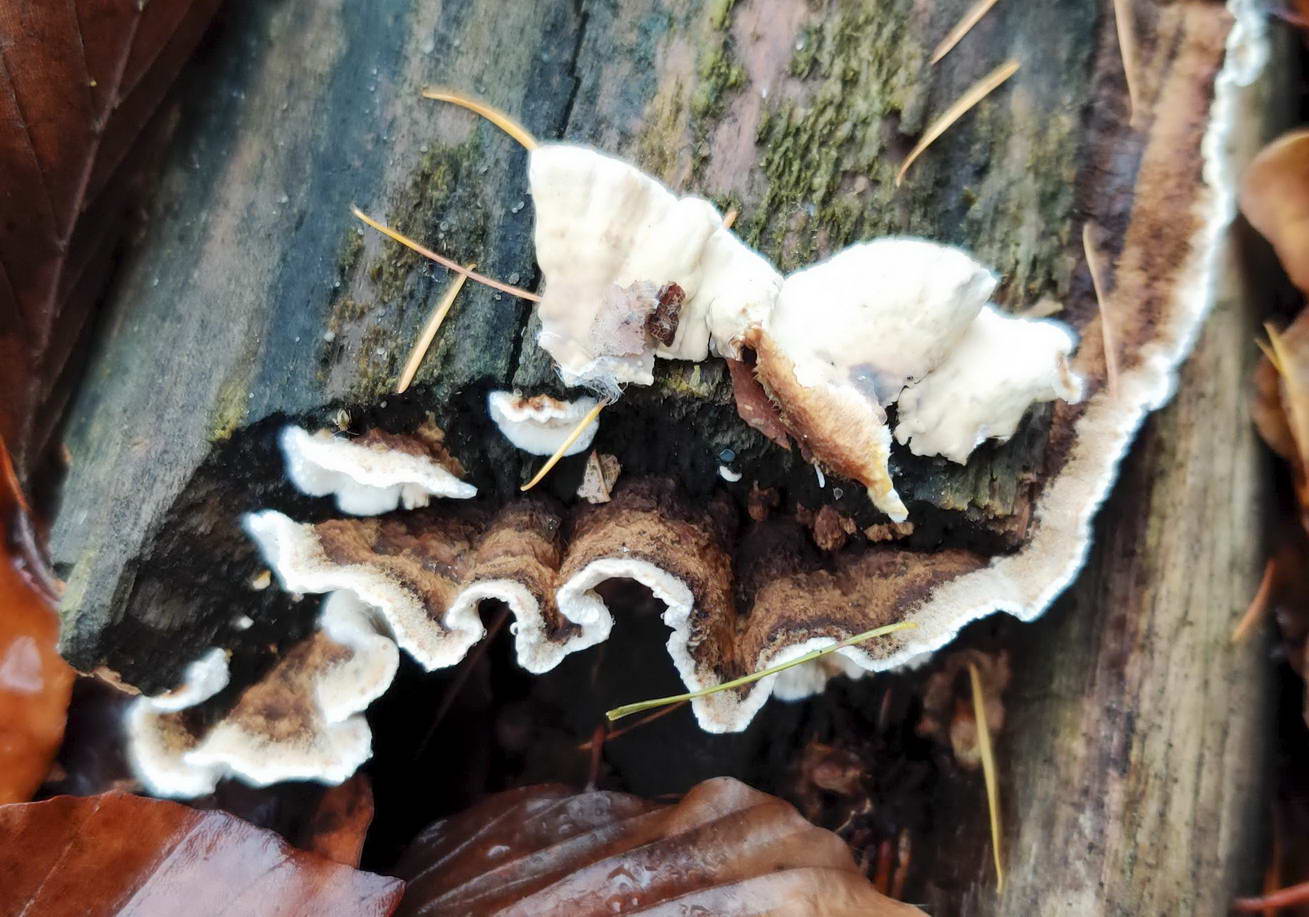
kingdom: Fungi
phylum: Basidiomycota
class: Agaricomycetes
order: Russulales
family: Hericiaceae
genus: Laxitextum
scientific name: Laxitextum bicolor
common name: tvefarvet filtskind
